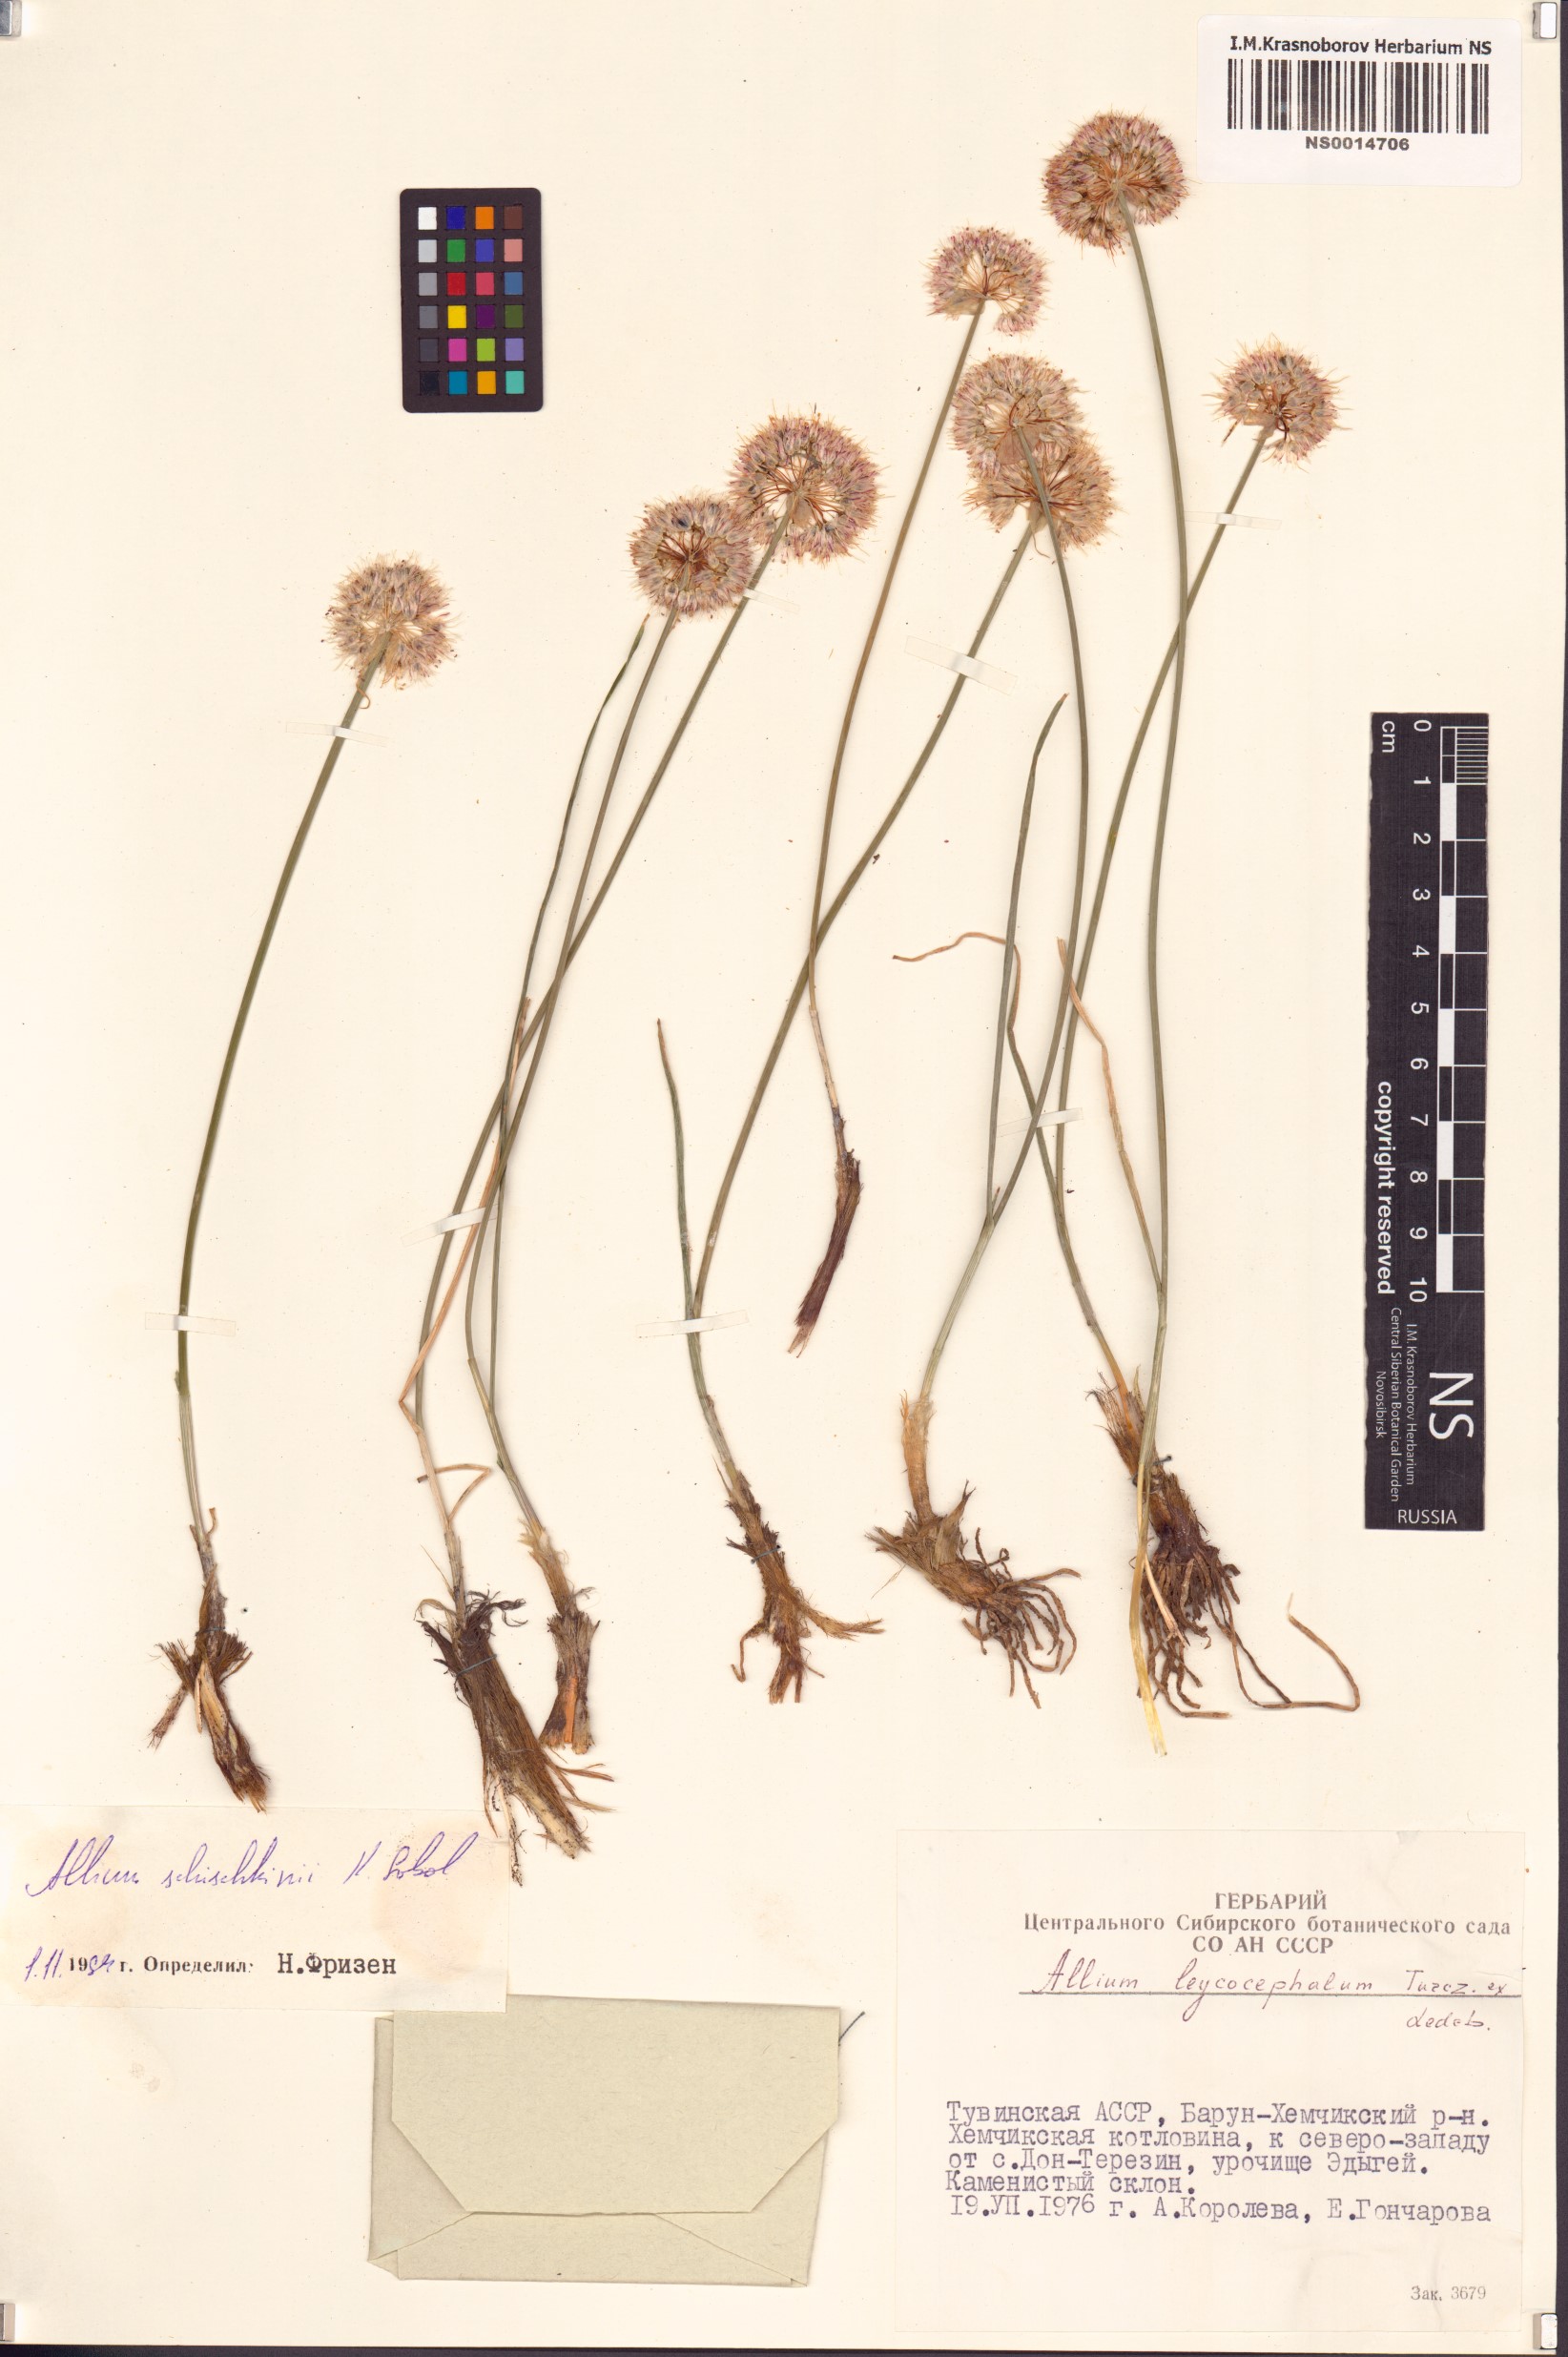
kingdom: Plantae
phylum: Tracheophyta
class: Liliopsida
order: Asparagales
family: Amaryllidaceae
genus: Allium
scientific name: Allium schischkinii
